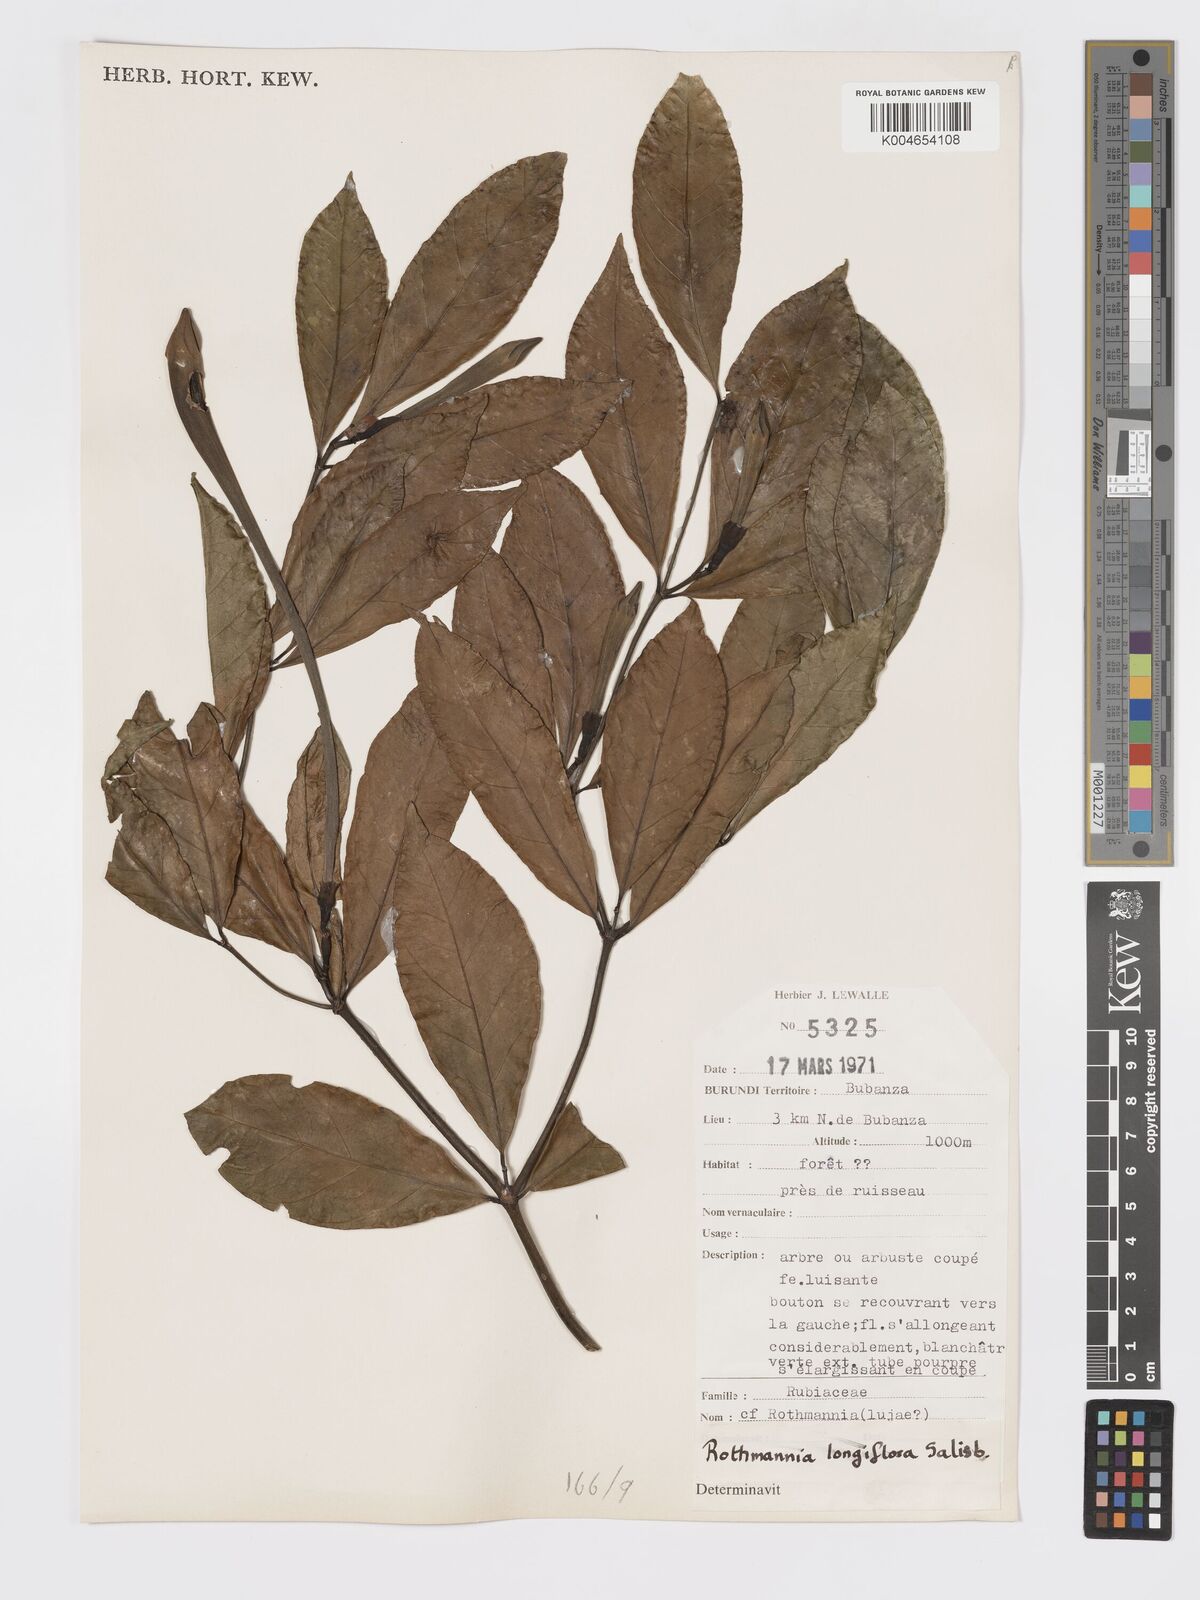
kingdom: Plantae
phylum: Tracheophyta
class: Magnoliopsida
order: Gentianales
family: Rubiaceae
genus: Rothmannia
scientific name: Rothmannia longiflora
